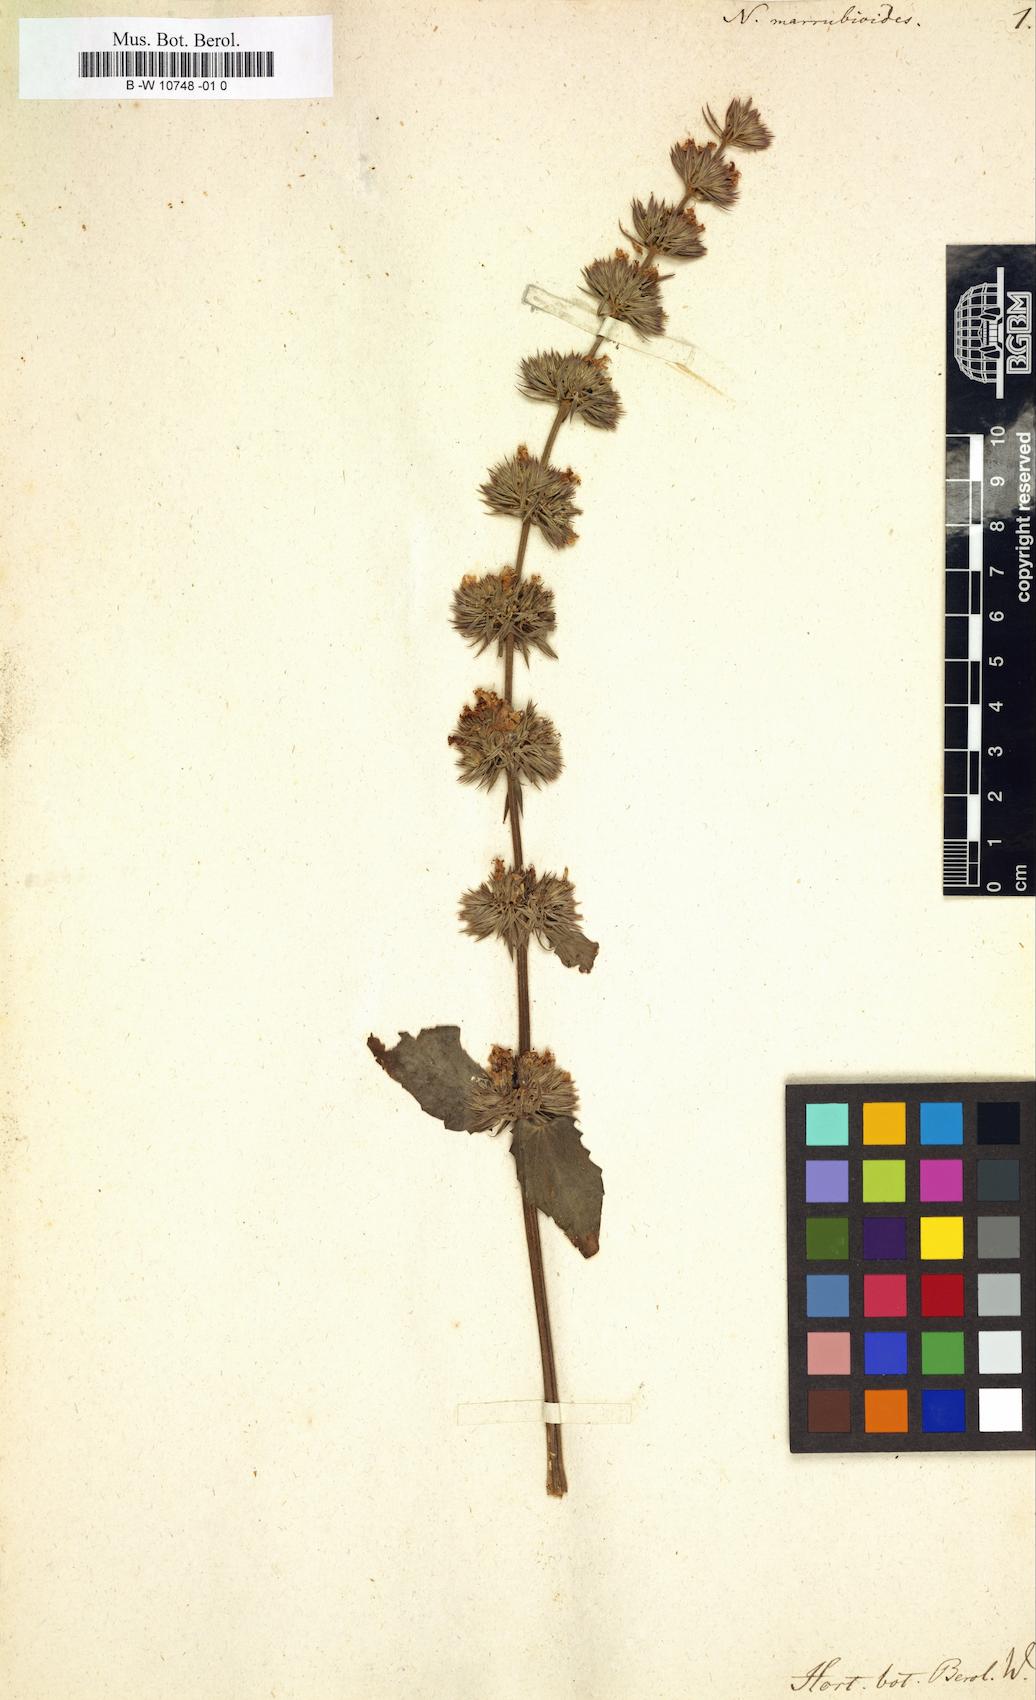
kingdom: Plantae
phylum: Tracheophyta
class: Magnoliopsida
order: Lamiales
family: Lamiaceae
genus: Nepeta
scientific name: Nepeta italica
